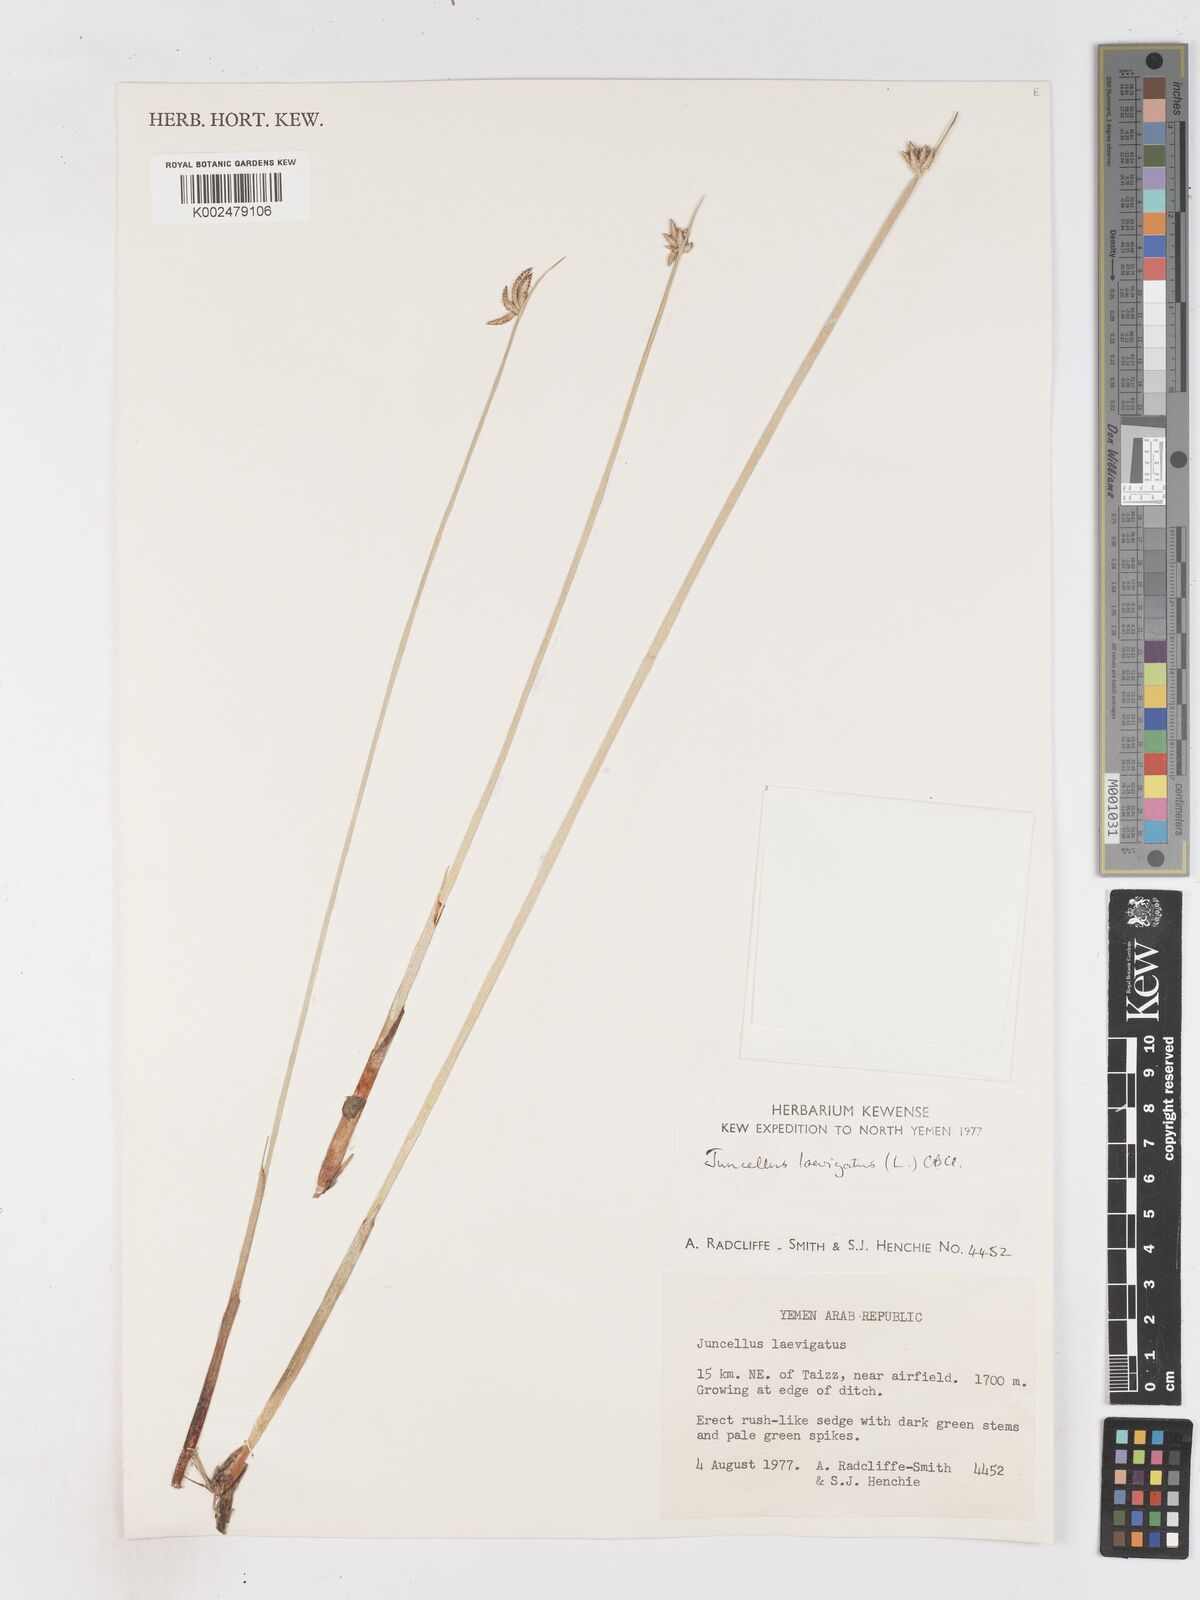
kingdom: Plantae
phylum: Tracheophyta
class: Liliopsida
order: Poales
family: Cyperaceae
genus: Cyperus
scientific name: Cyperus laevigatus
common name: Smooth flat sedge
